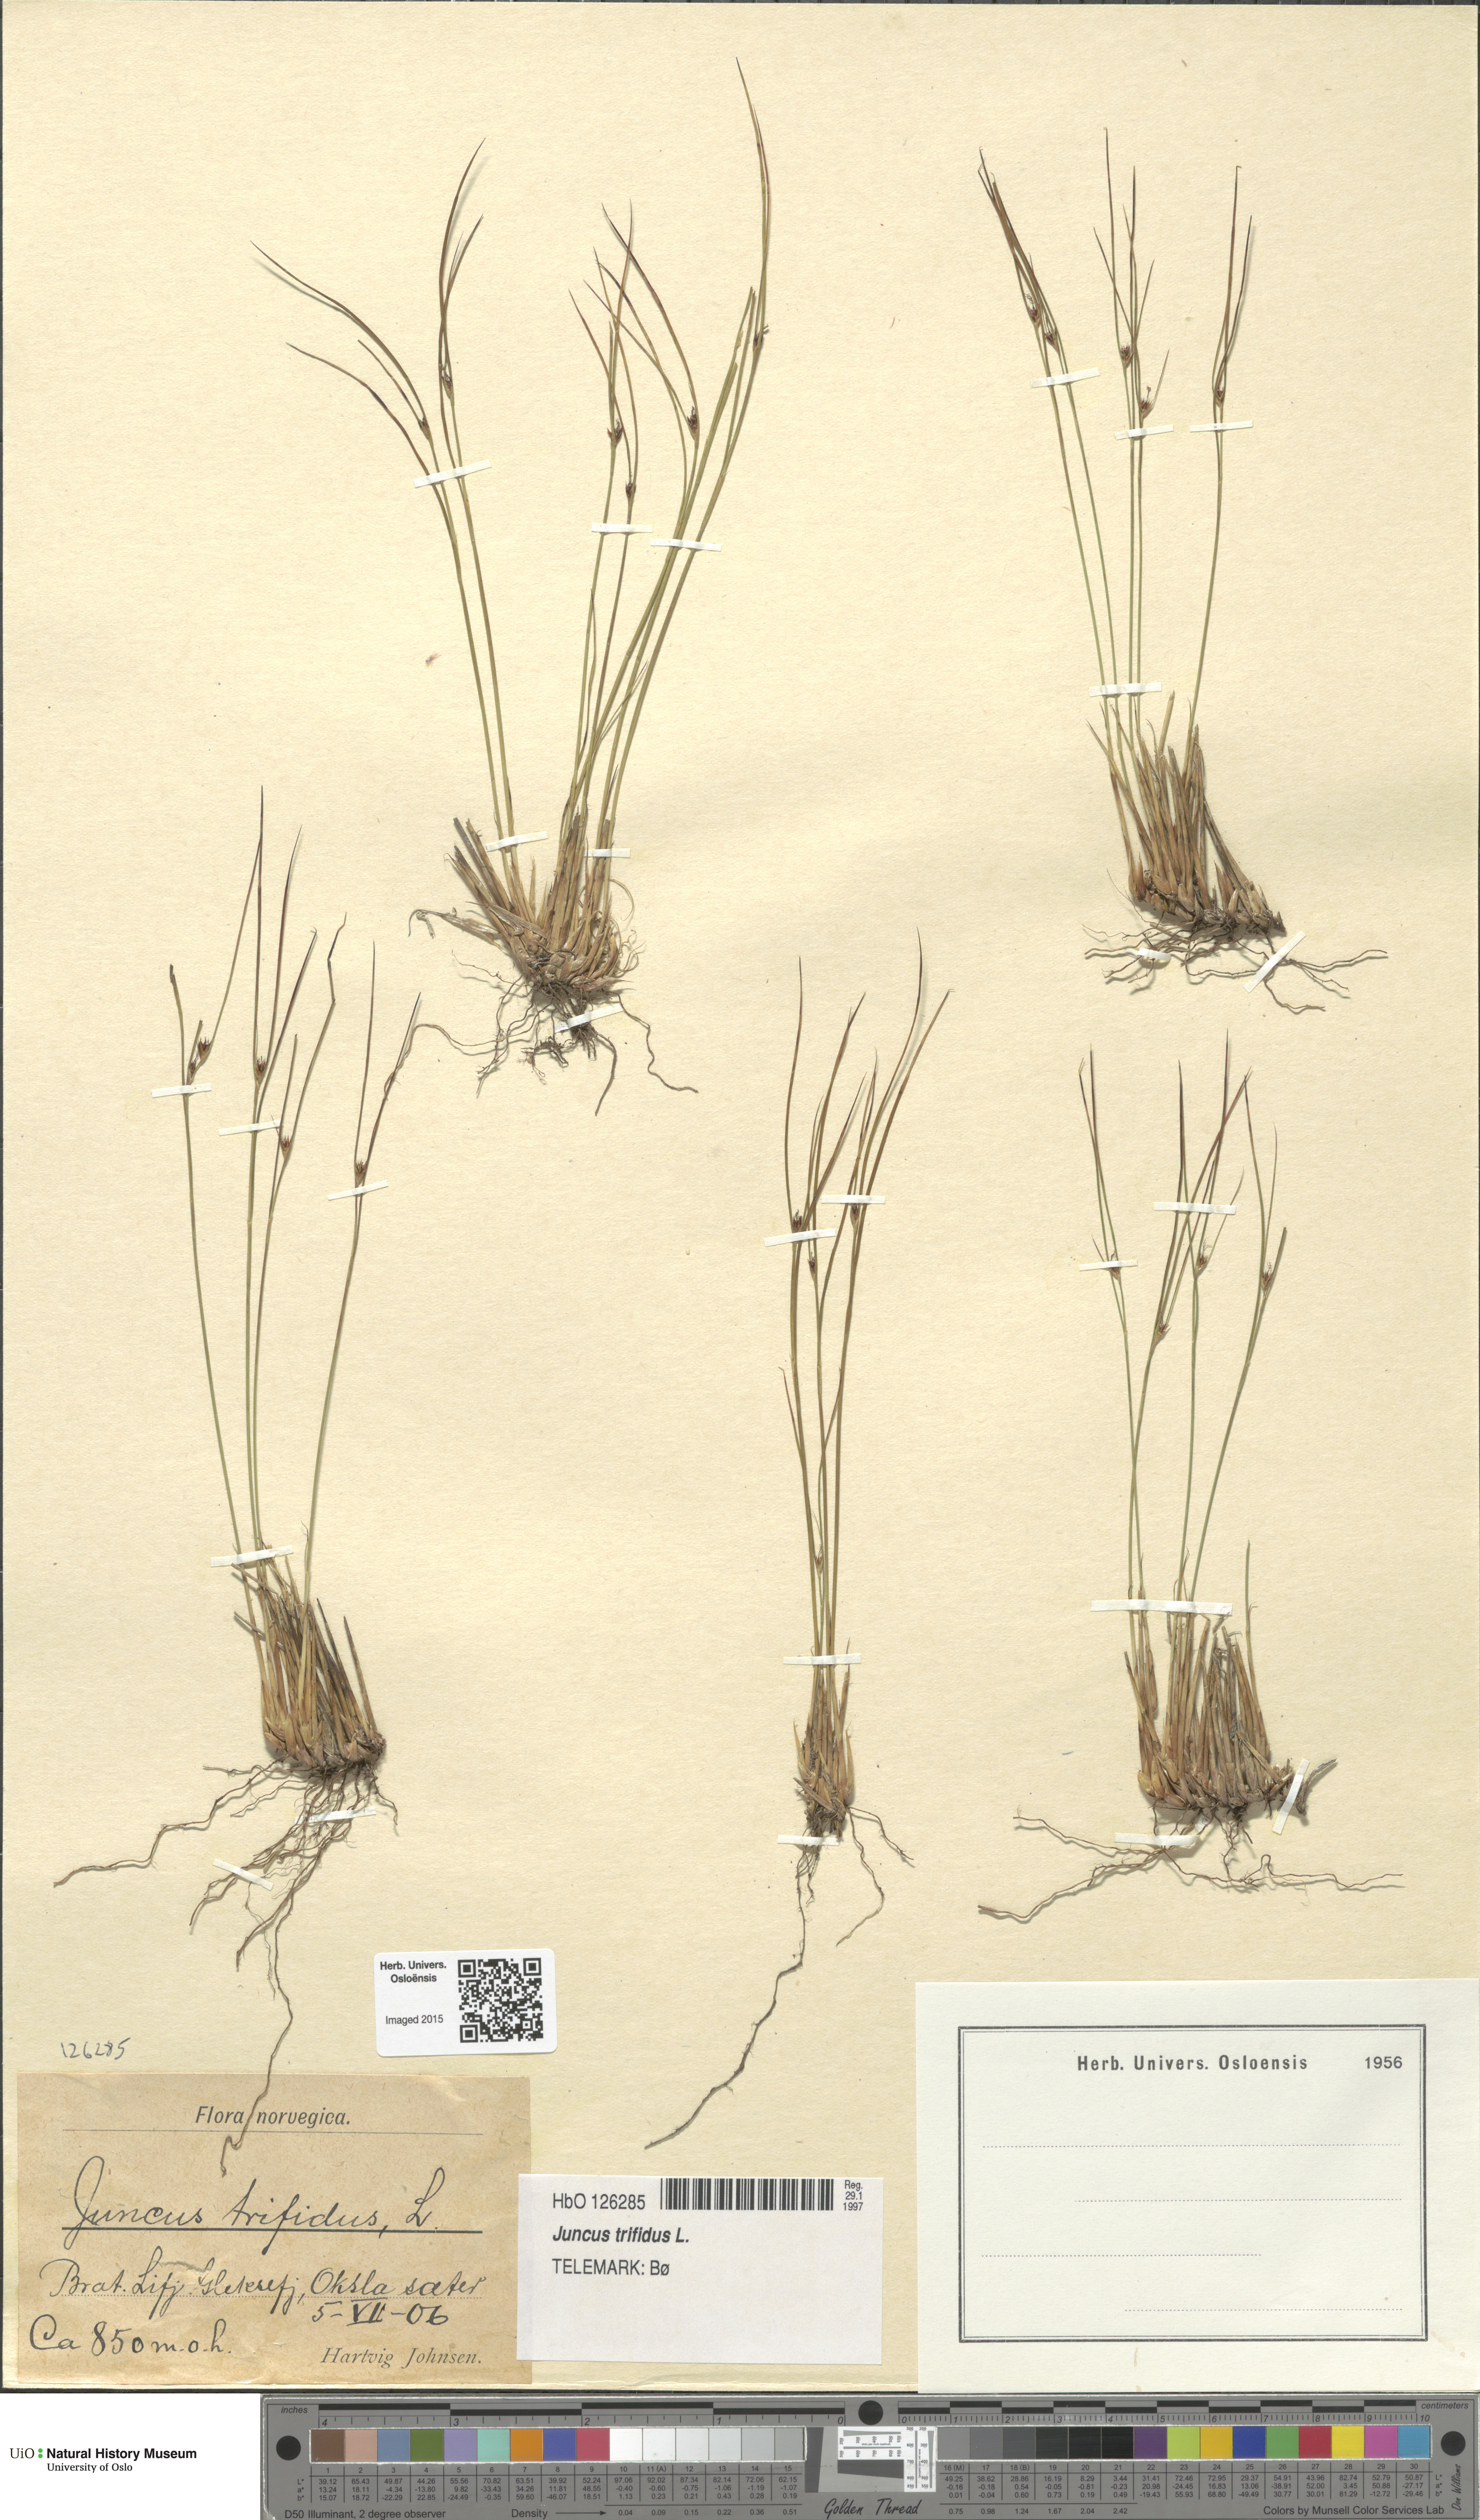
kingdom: Plantae
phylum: Tracheophyta
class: Liliopsida
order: Poales
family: Juncaceae
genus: Oreojuncus
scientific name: Oreojuncus trifidus
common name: Highland rush
